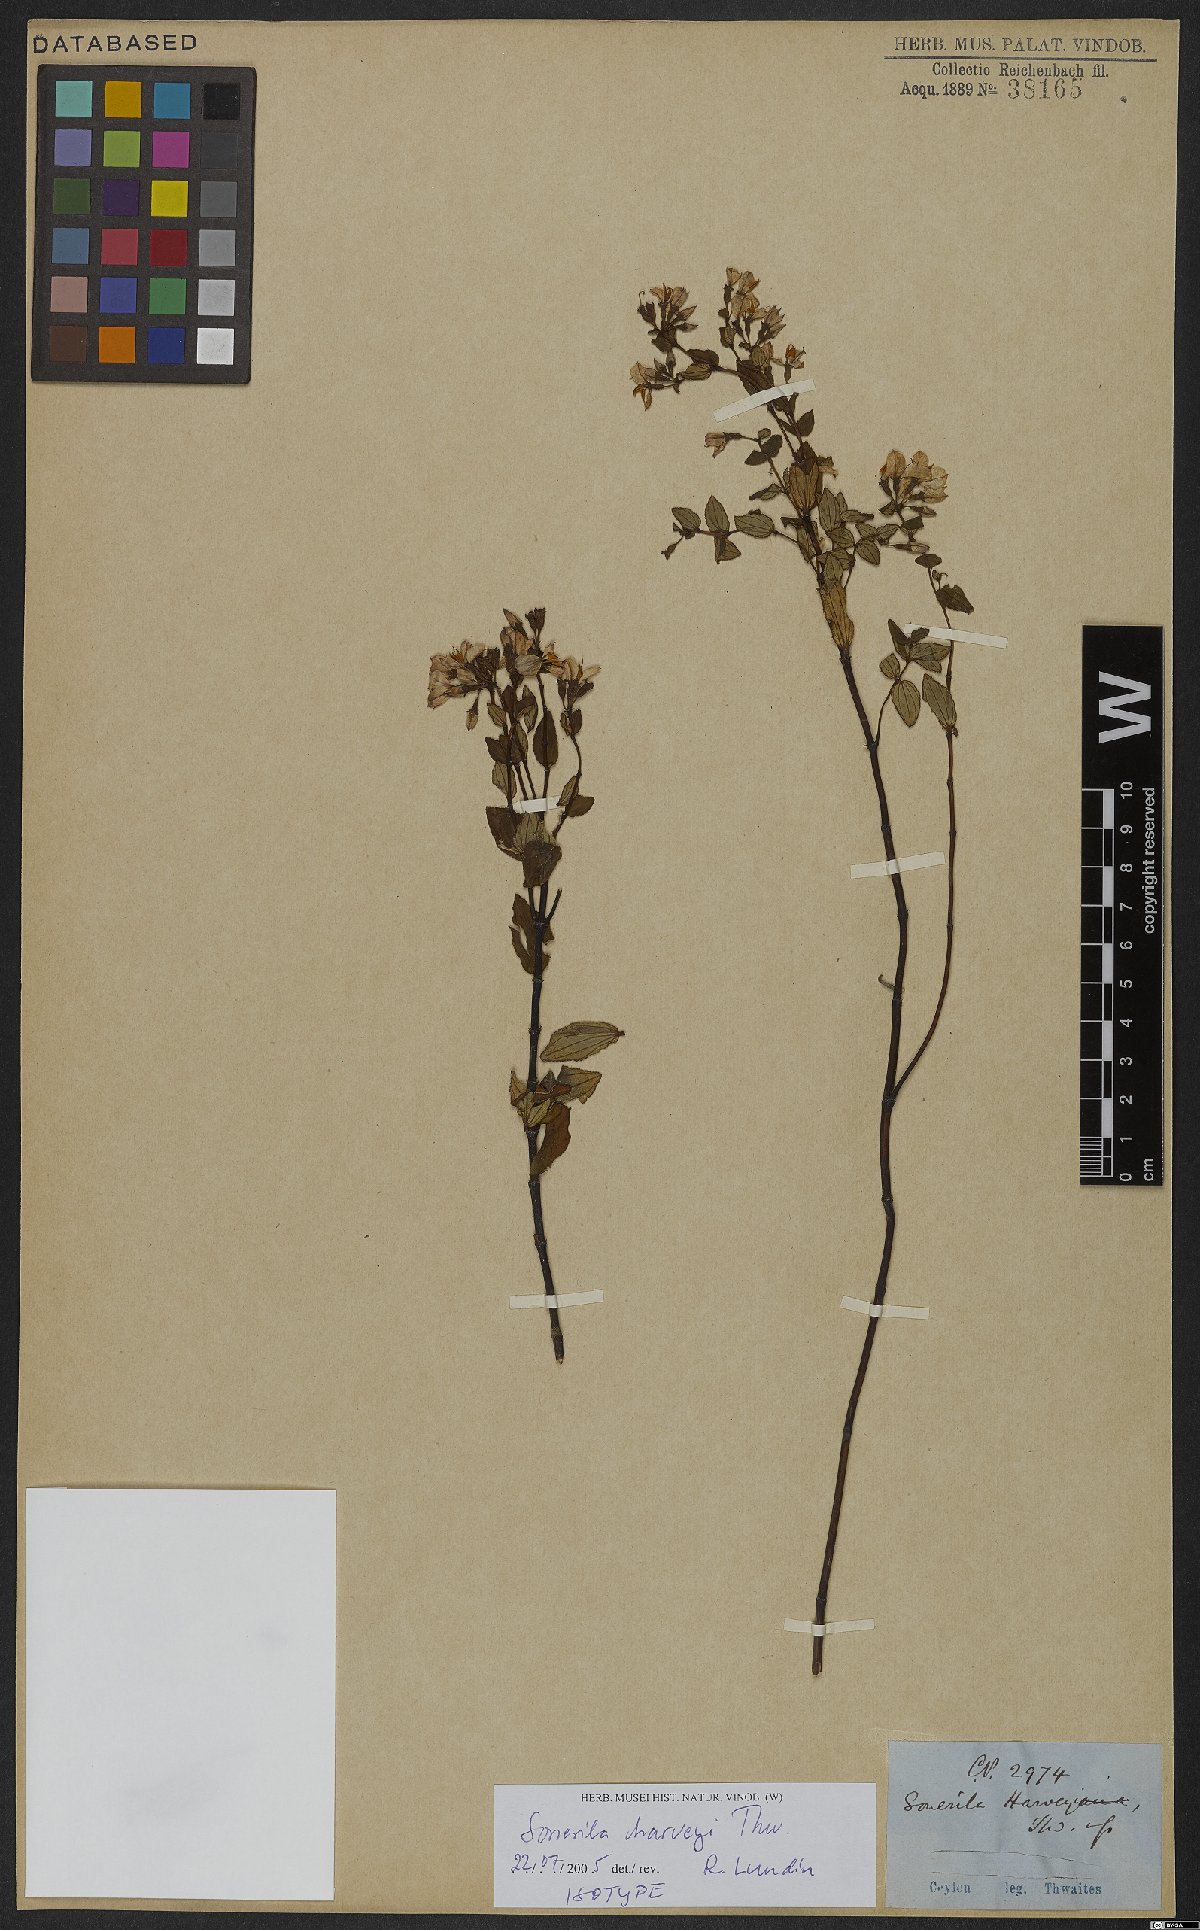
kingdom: Plantae
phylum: Tracheophyta
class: Magnoliopsida
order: Myrtales
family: Melastomataceae
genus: Sonerila
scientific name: Sonerila harveyi
